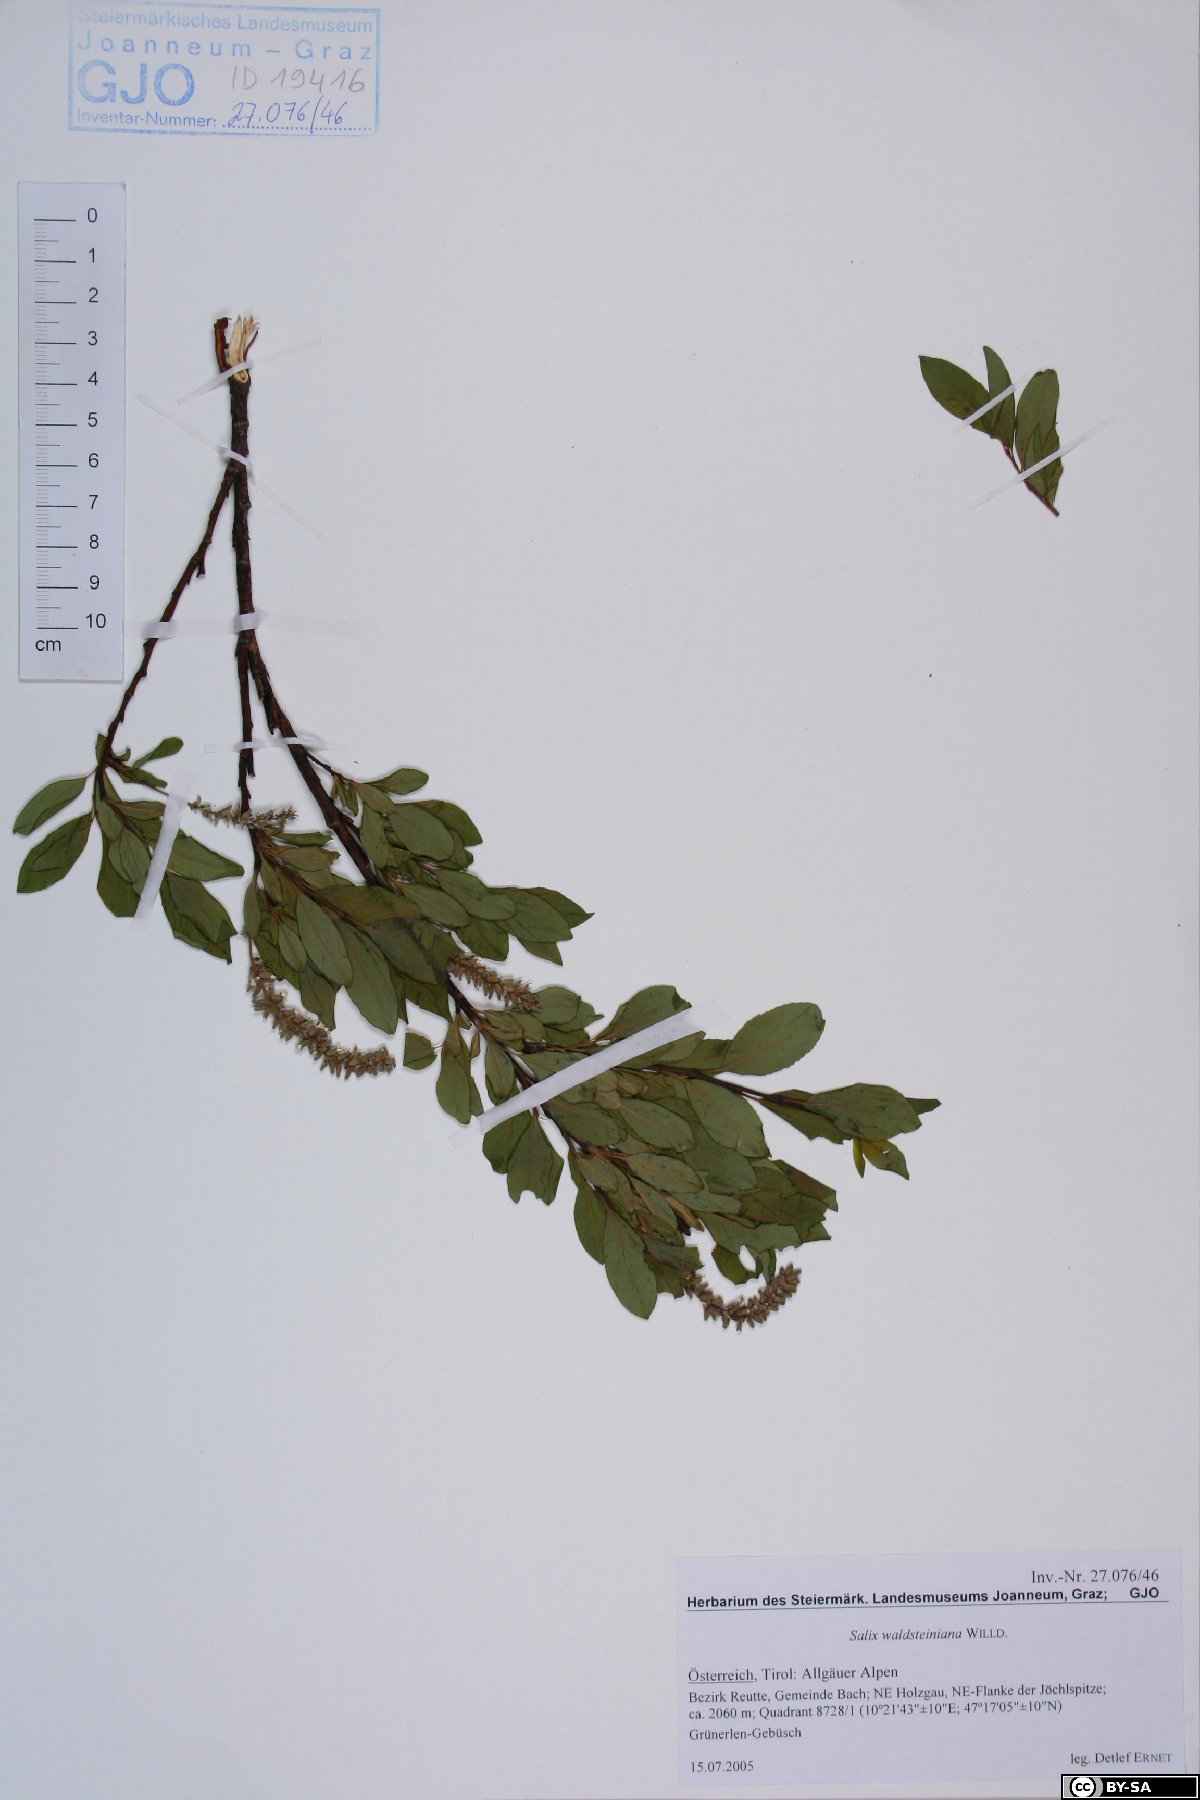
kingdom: Plantae
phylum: Tracheophyta
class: Magnoliopsida
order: Malpighiales
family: Salicaceae
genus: Salix
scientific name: Salix waldsteiniana
